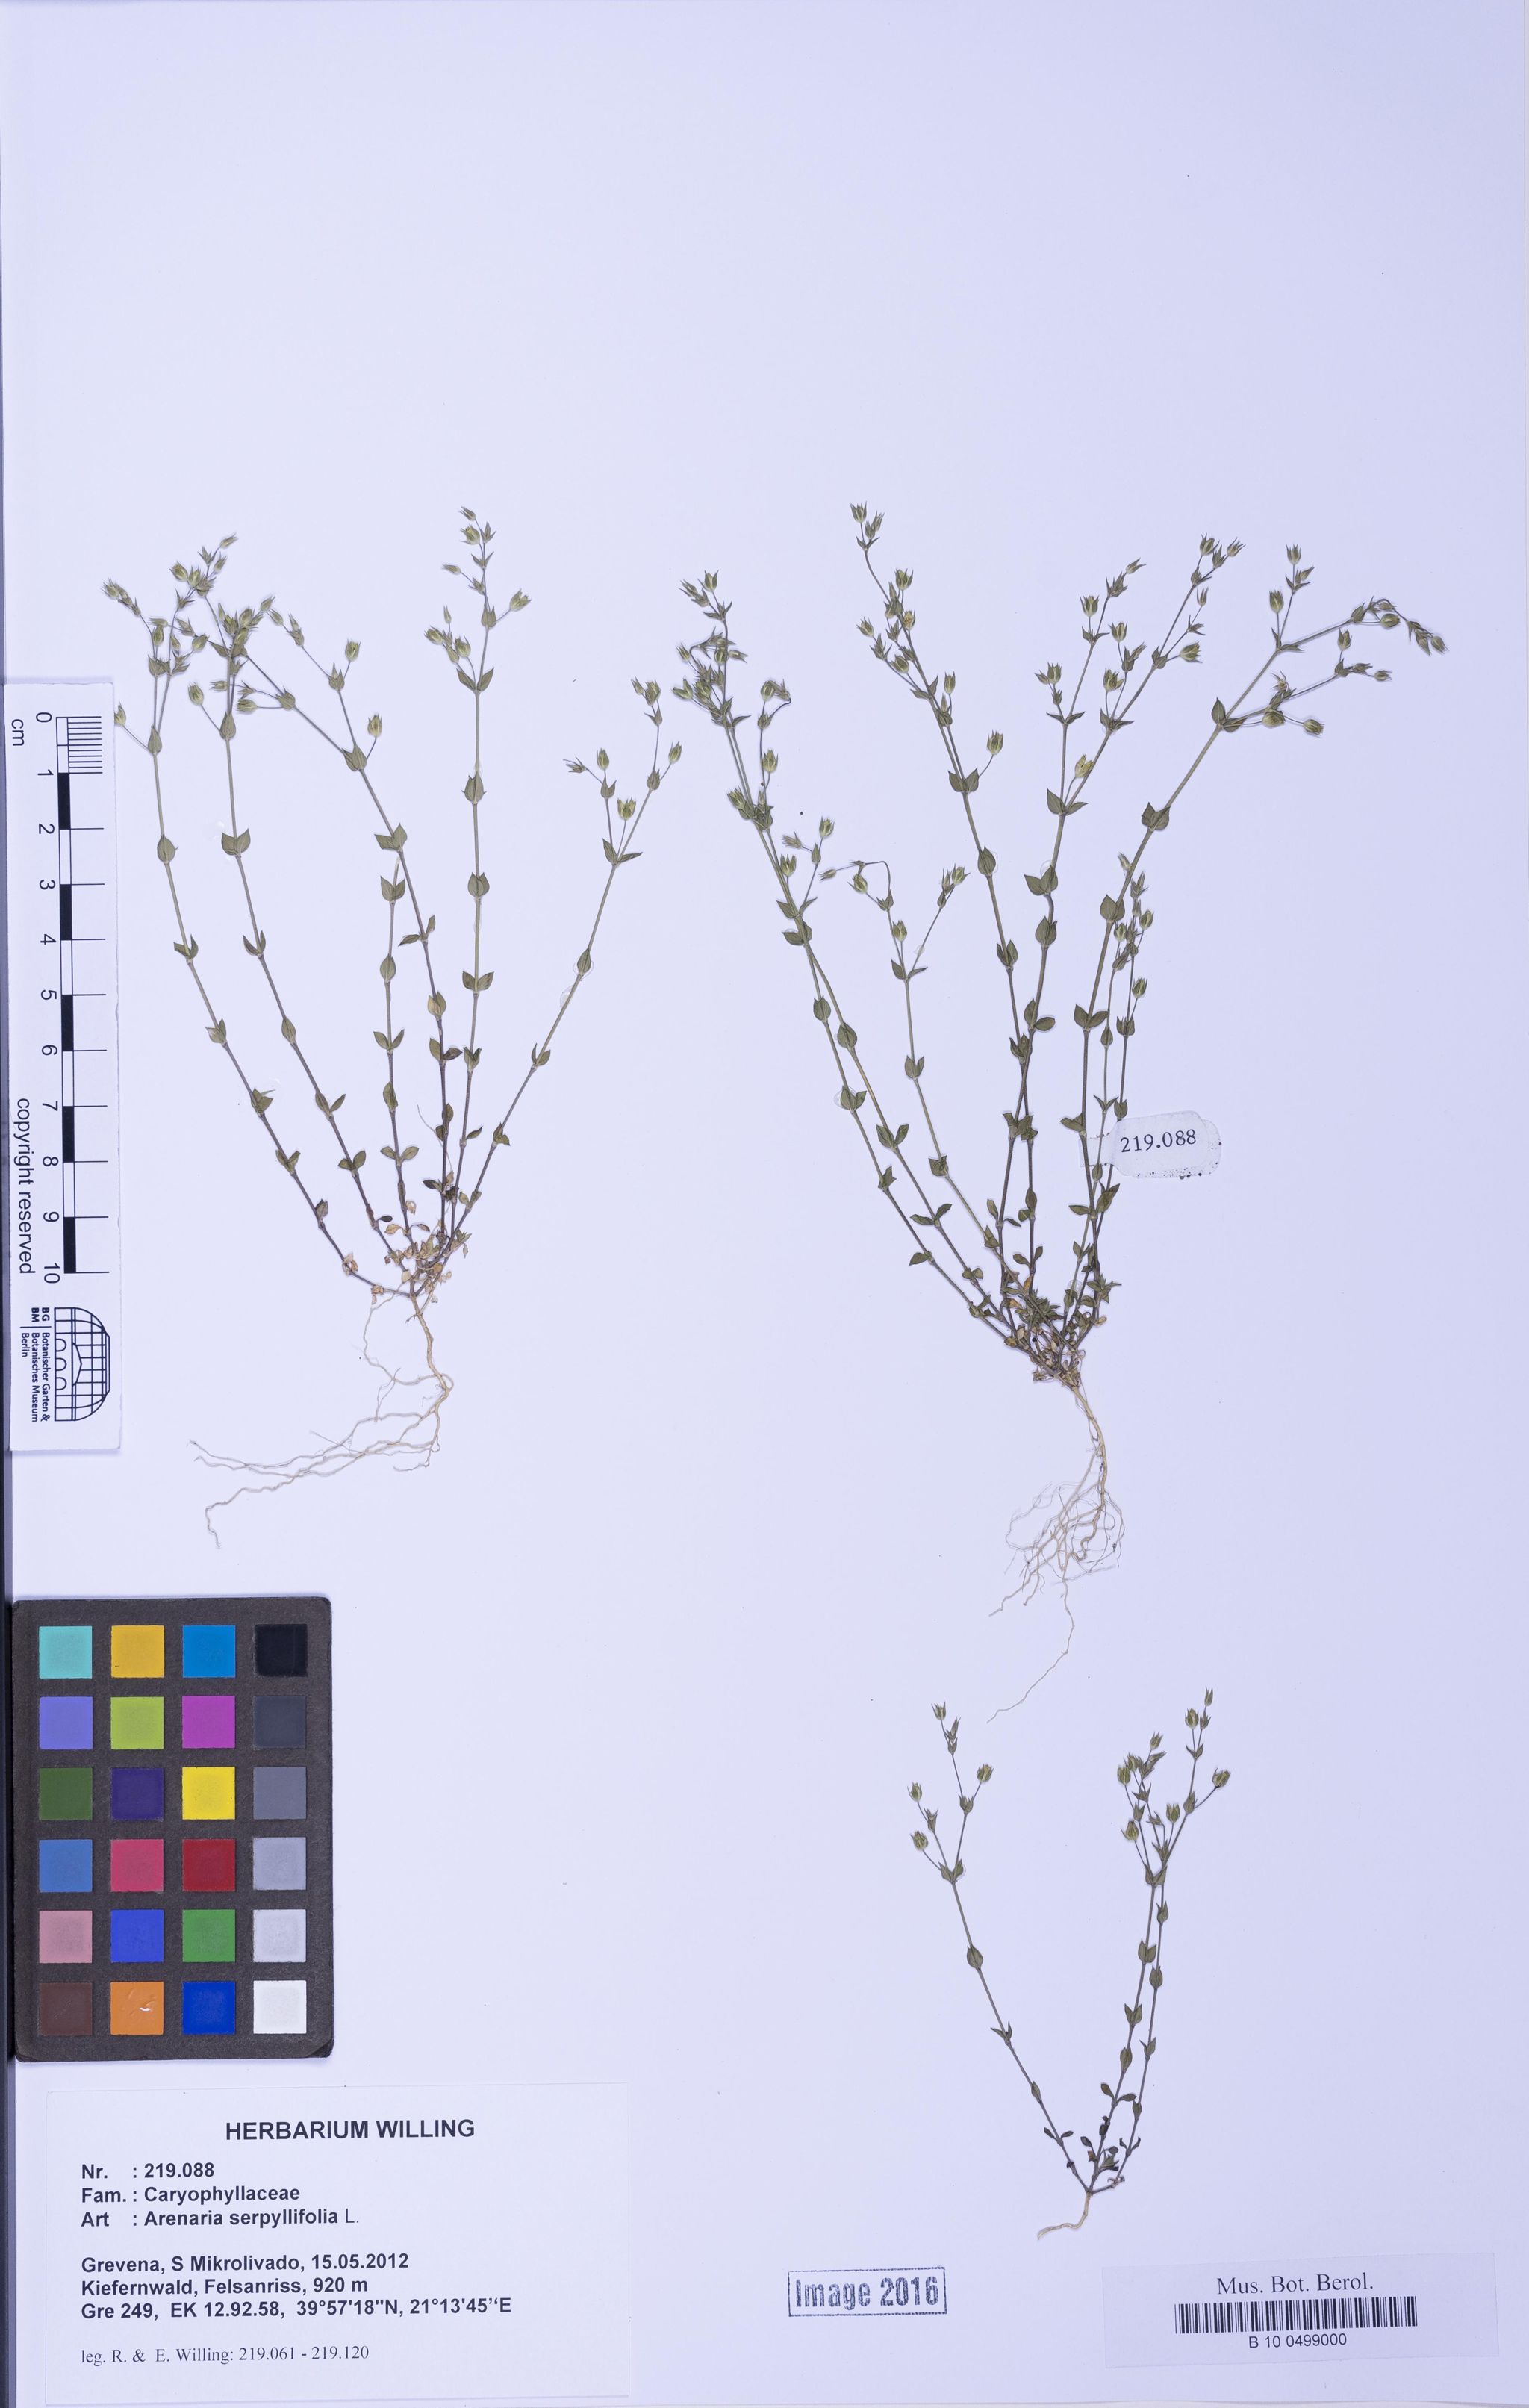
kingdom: Plantae
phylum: Tracheophyta
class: Magnoliopsida
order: Caryophyllales
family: Caryophyllaceae
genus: Arenaria
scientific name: Arenaria serpyllifolia
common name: Thyme-leaved sandwort
